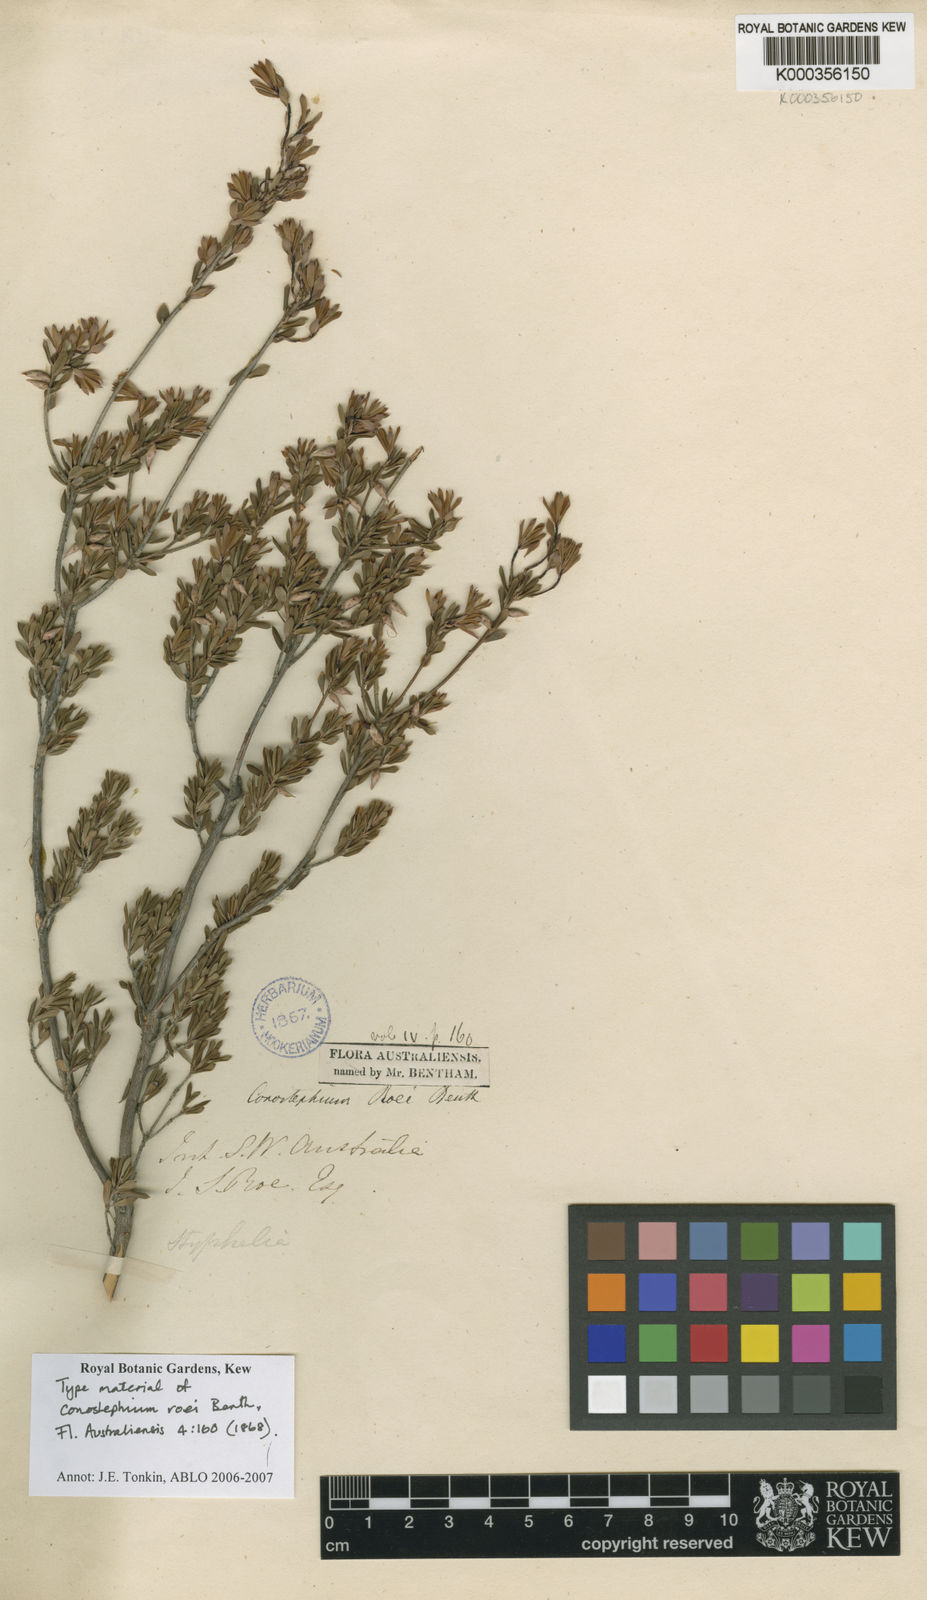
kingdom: Plantae
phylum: Tracheophyta
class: Magnoliopsida
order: Ericales
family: Ericaceae
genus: Conostephium
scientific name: Conostephium roei
